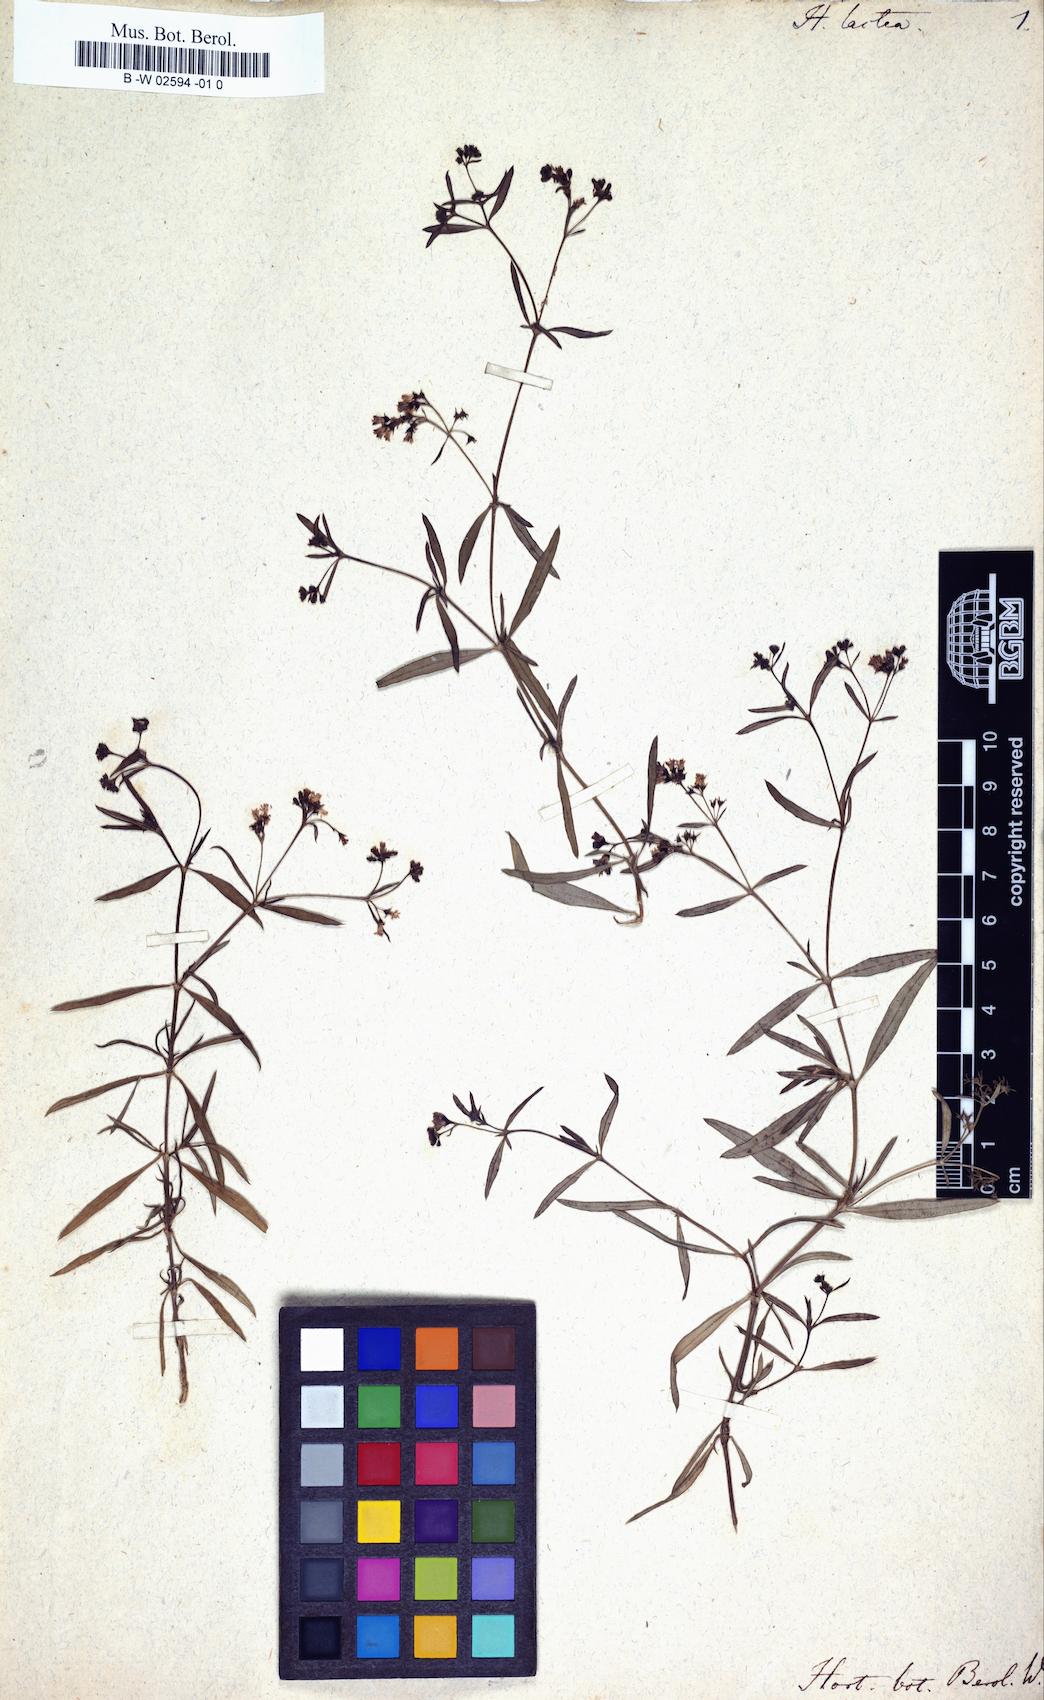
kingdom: Plantae
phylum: Tracheophyta
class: Magnoliopsida
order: Gentianales
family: Rubiaceae
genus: Oldenlandia
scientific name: Oldenlandia lactea
